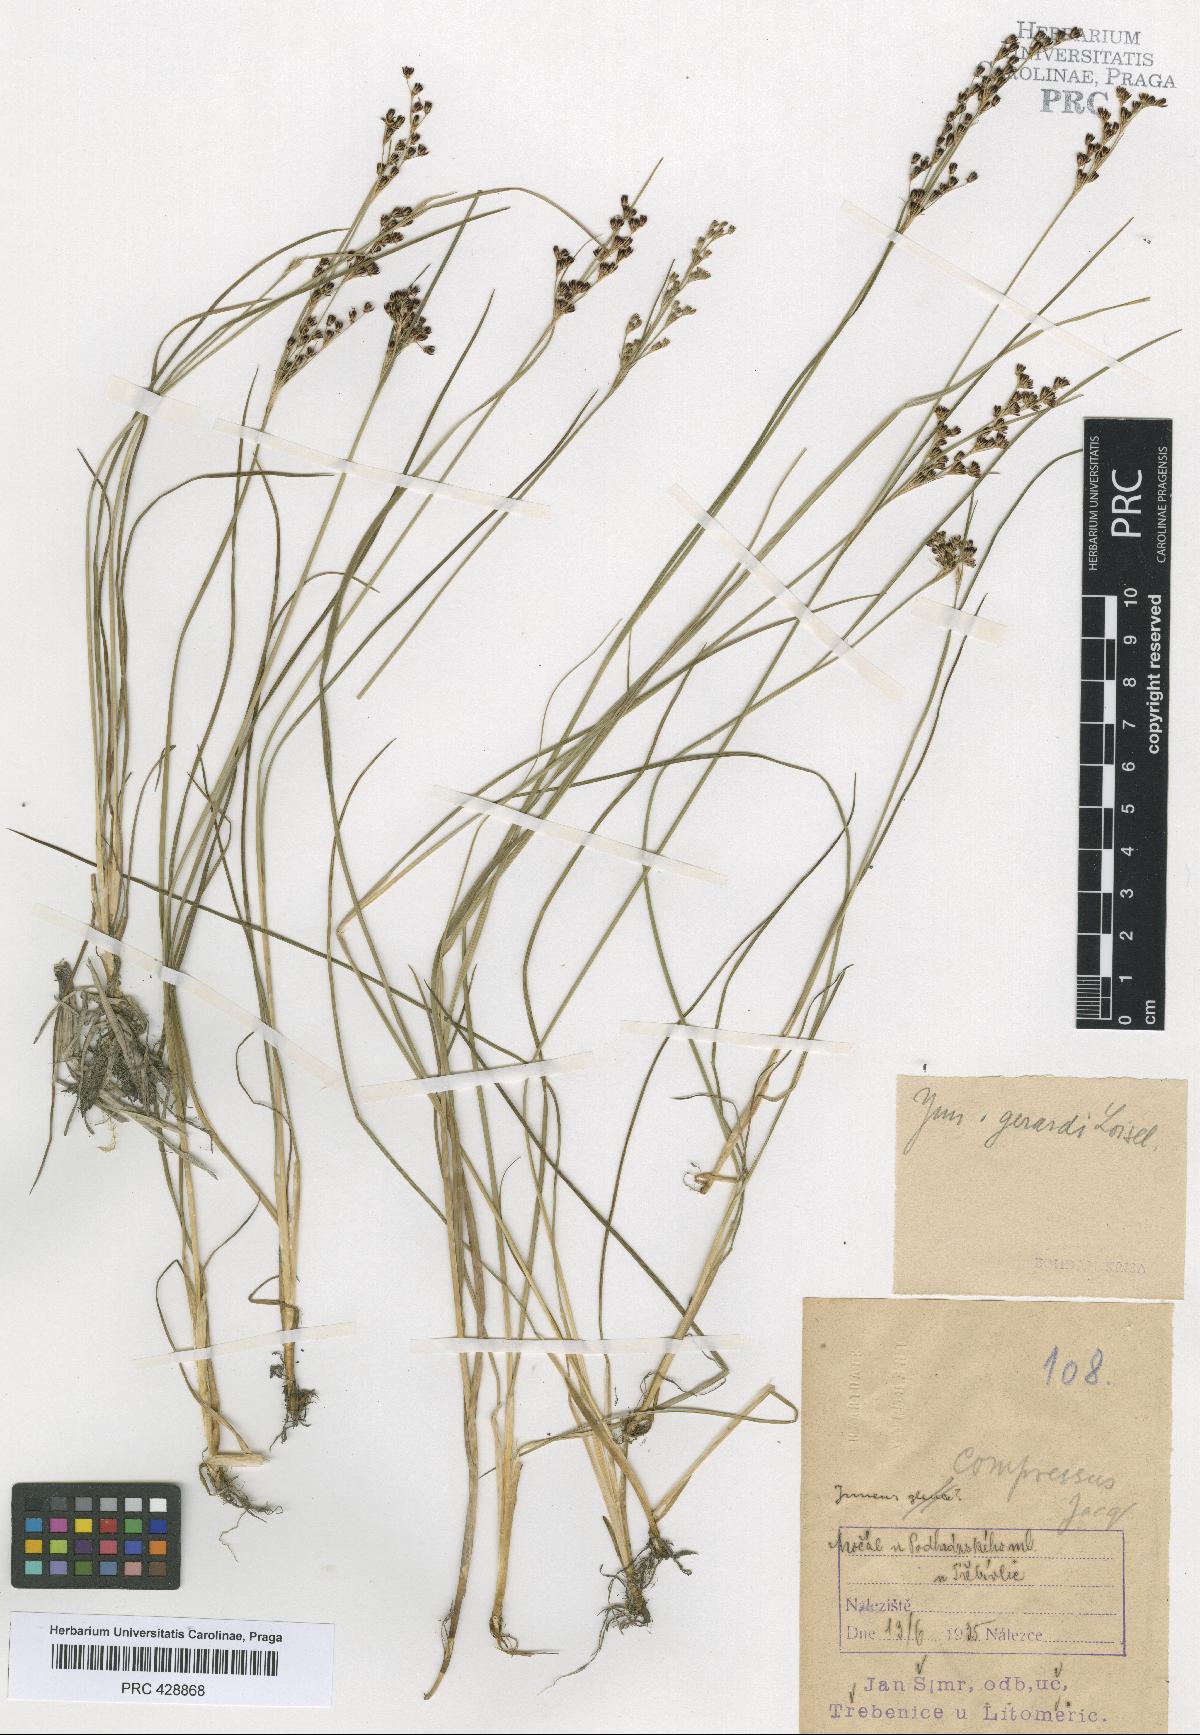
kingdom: Plantae
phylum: Tracheophyta
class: Liliopsida
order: Poales
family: Juncaceae
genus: Juncus
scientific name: Juncus gerardi
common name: Saltmarsh rush
